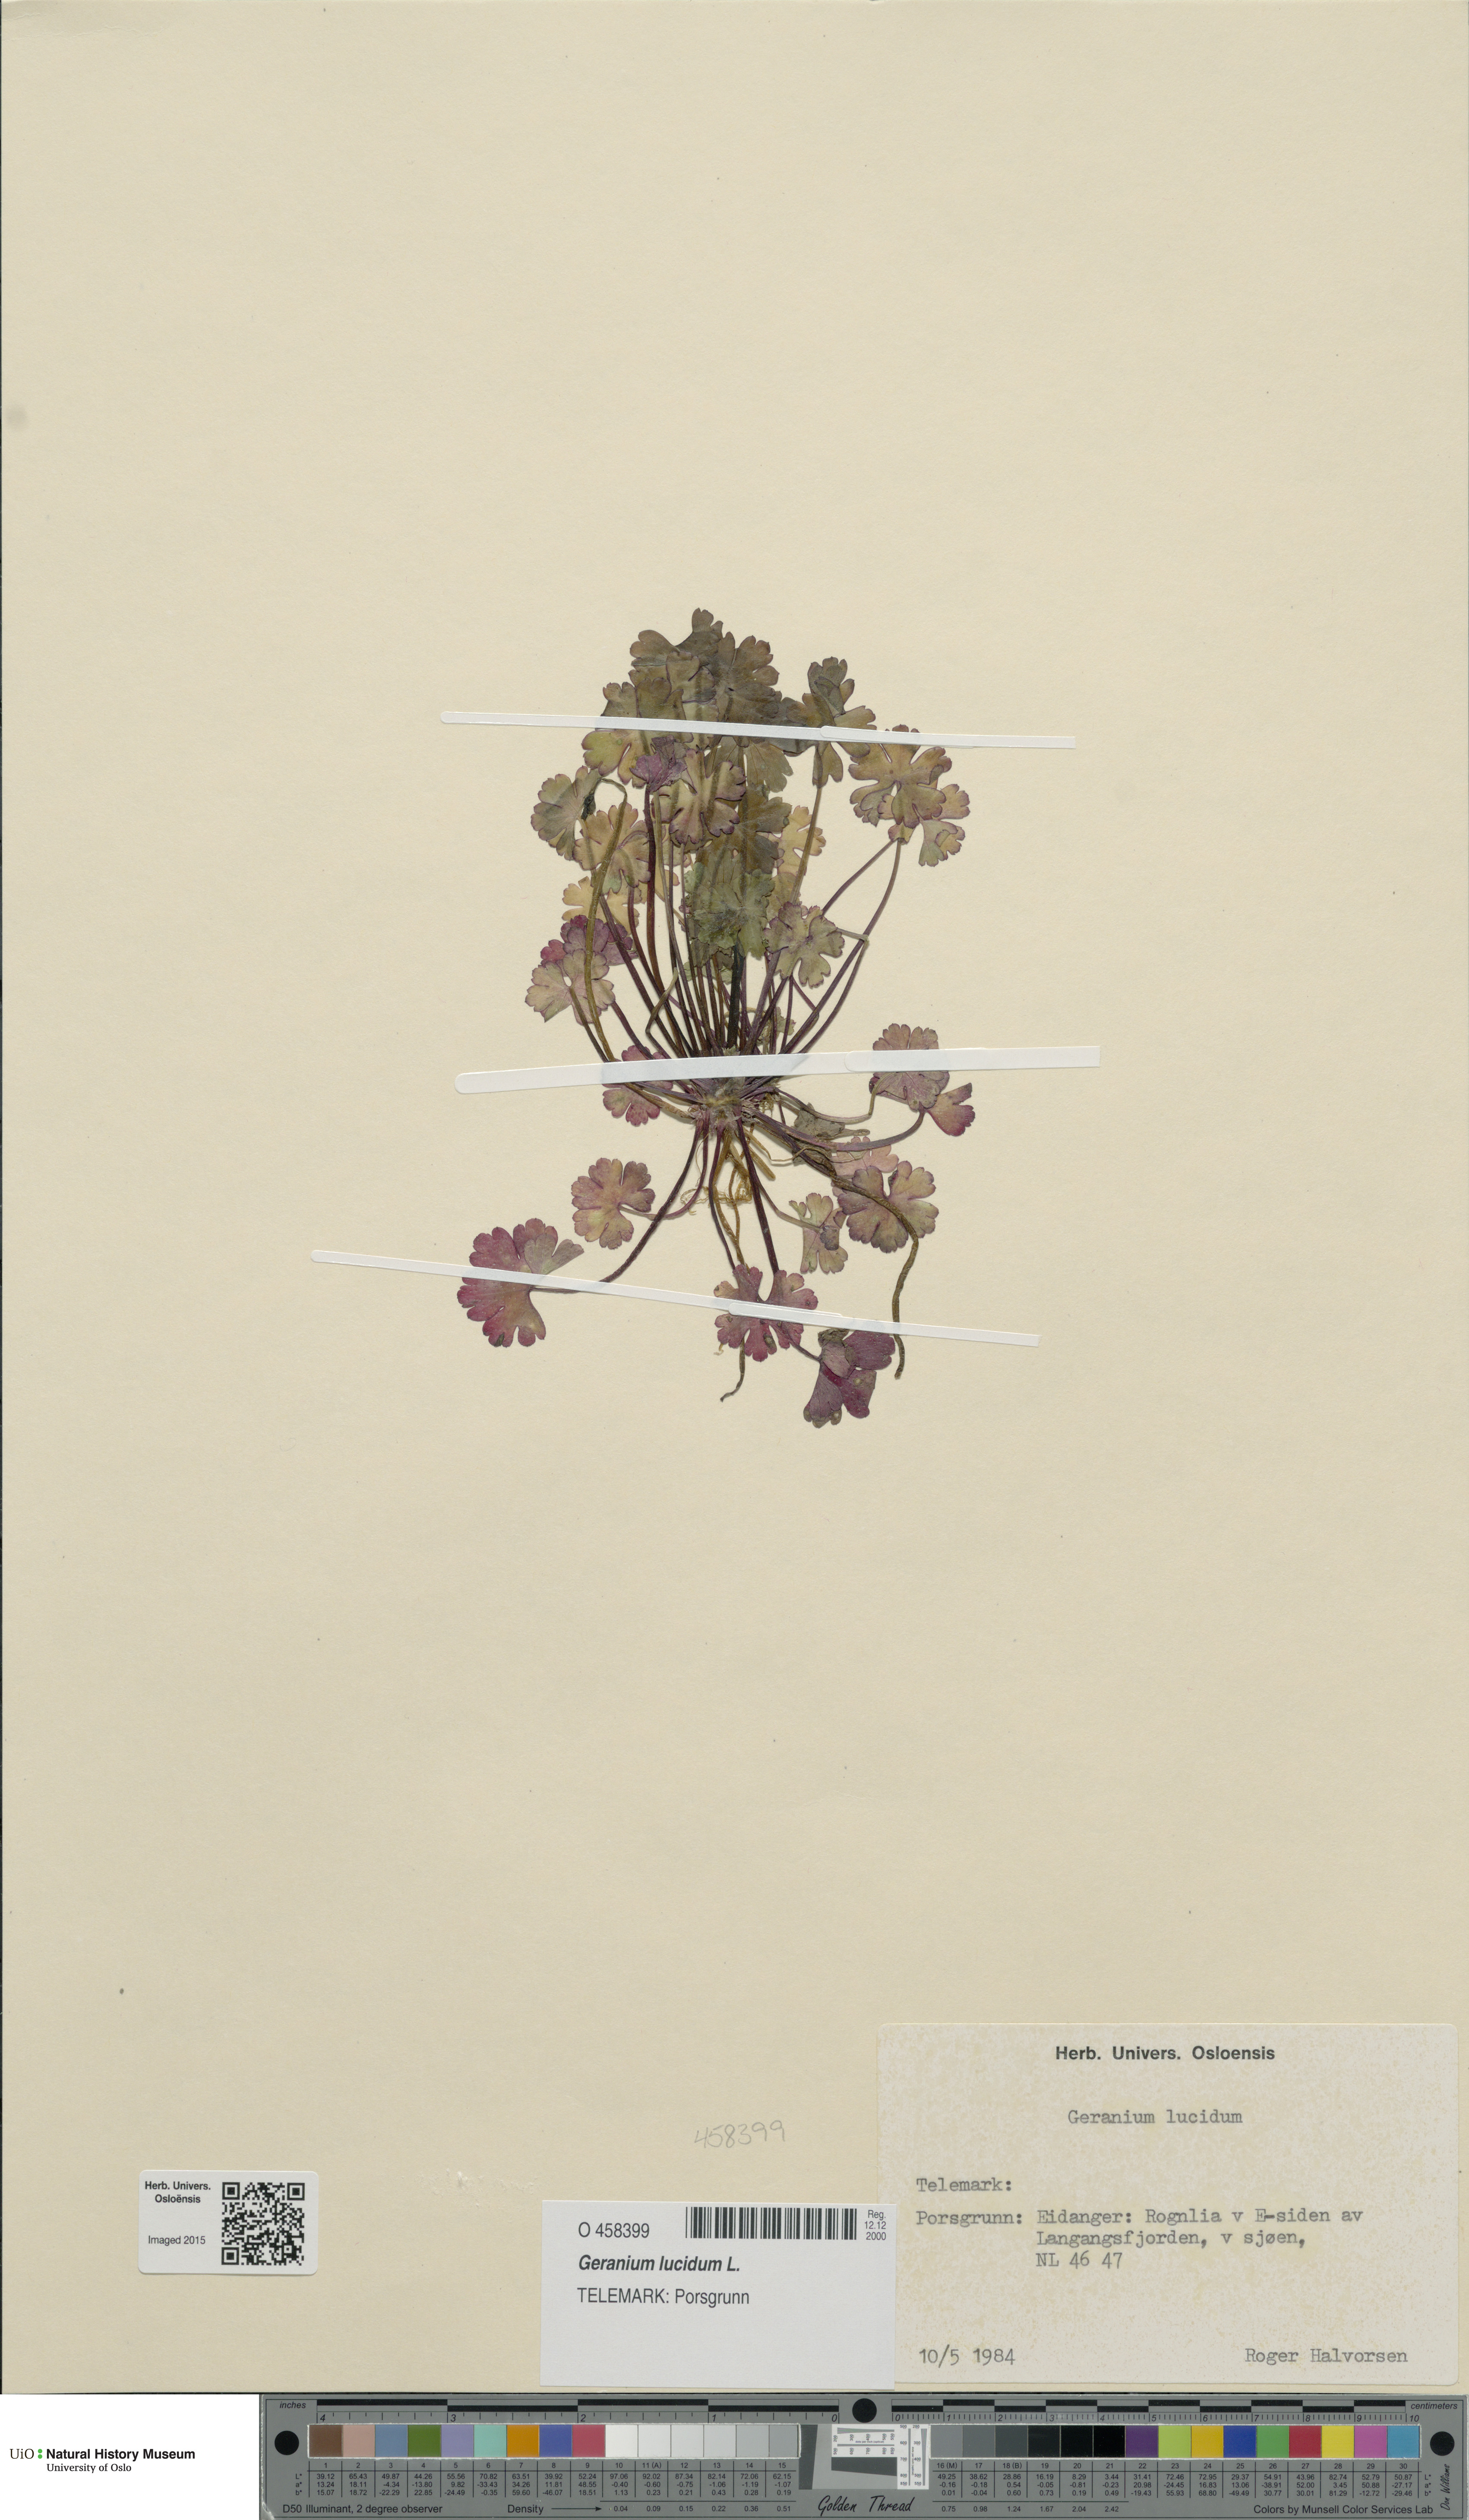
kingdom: Plantae
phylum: Tracheophyta
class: Magnoliopsida
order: Geraniales
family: Geraniaceae
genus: Geranium
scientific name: Geranium lucidum
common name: Shining crane's-bill
